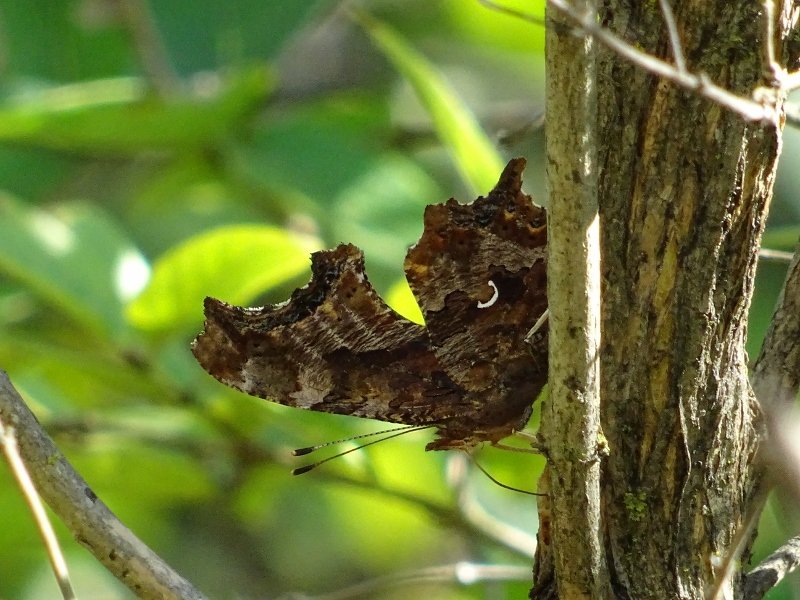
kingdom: Animalia
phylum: Arthropoda
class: Insecta
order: Lepidoptera
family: Nymphalidae
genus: Polygonia
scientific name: Polygonia comma
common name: Eastern Comma
